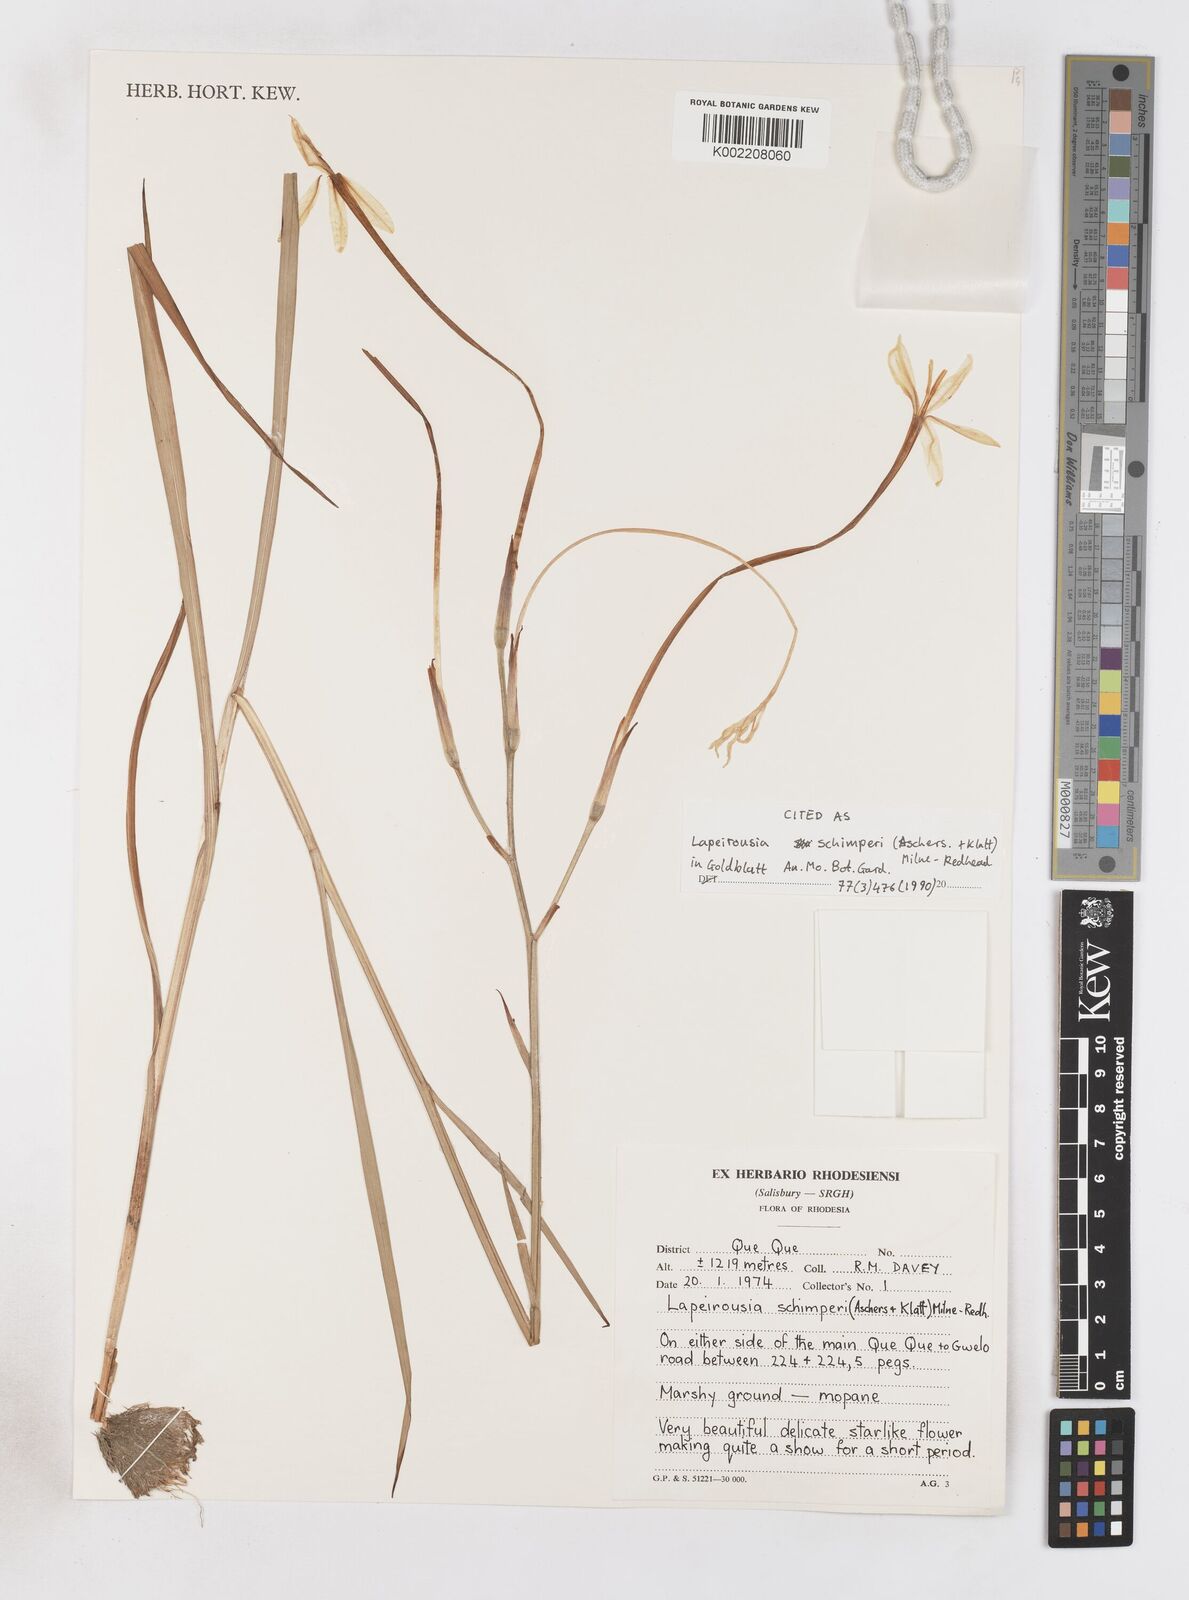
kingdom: Plantae
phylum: Tracheophyta
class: Liliopsida
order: Asparagales
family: Iridaceae
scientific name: Iridaceae
